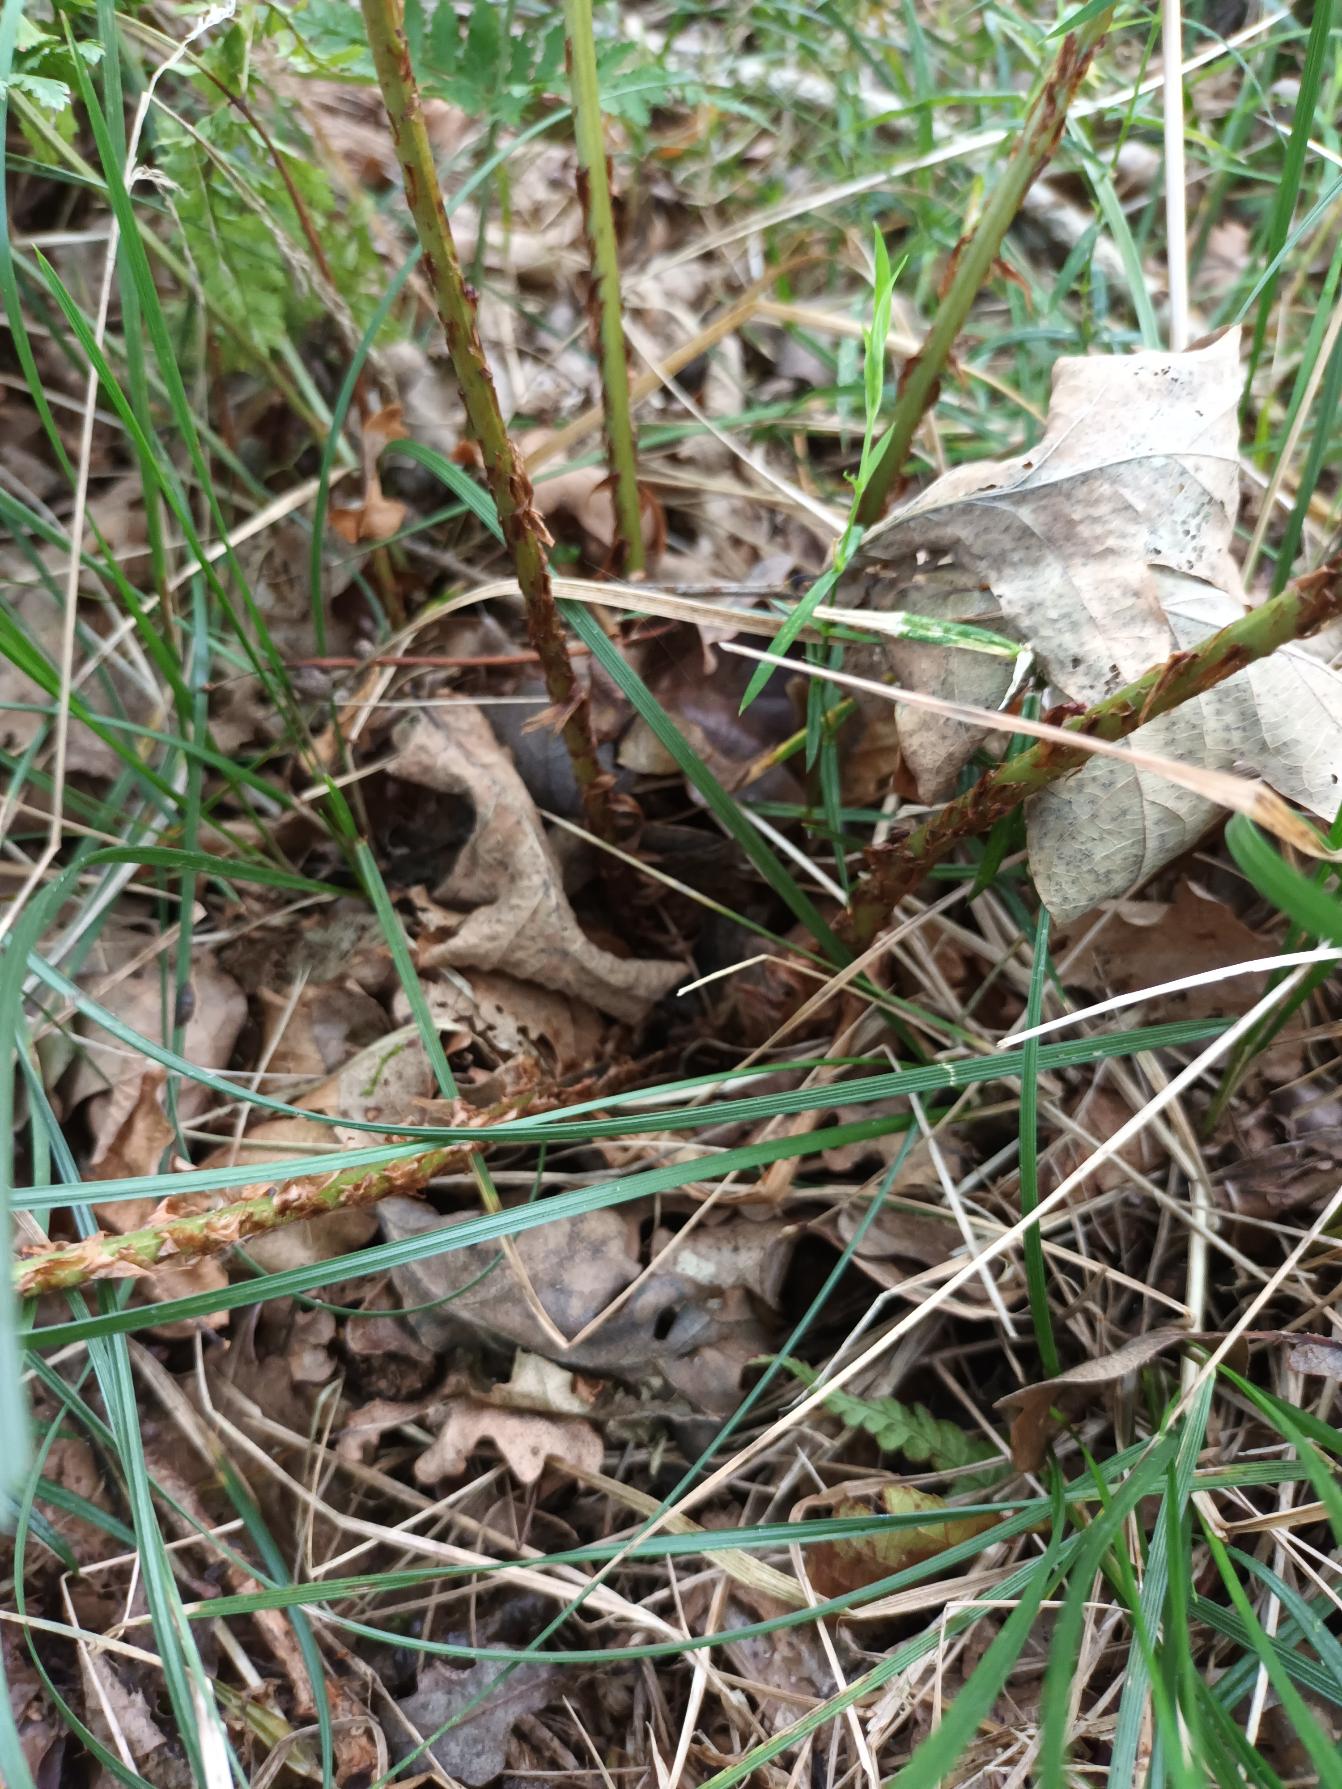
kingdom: Plantae
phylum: Tracheophyta
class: Polypodiopsida
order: Polypodiales
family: Dryopteridaceae
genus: Dryopteris
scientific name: Dryopteris dilatata
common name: Bredbladet mangeløv
